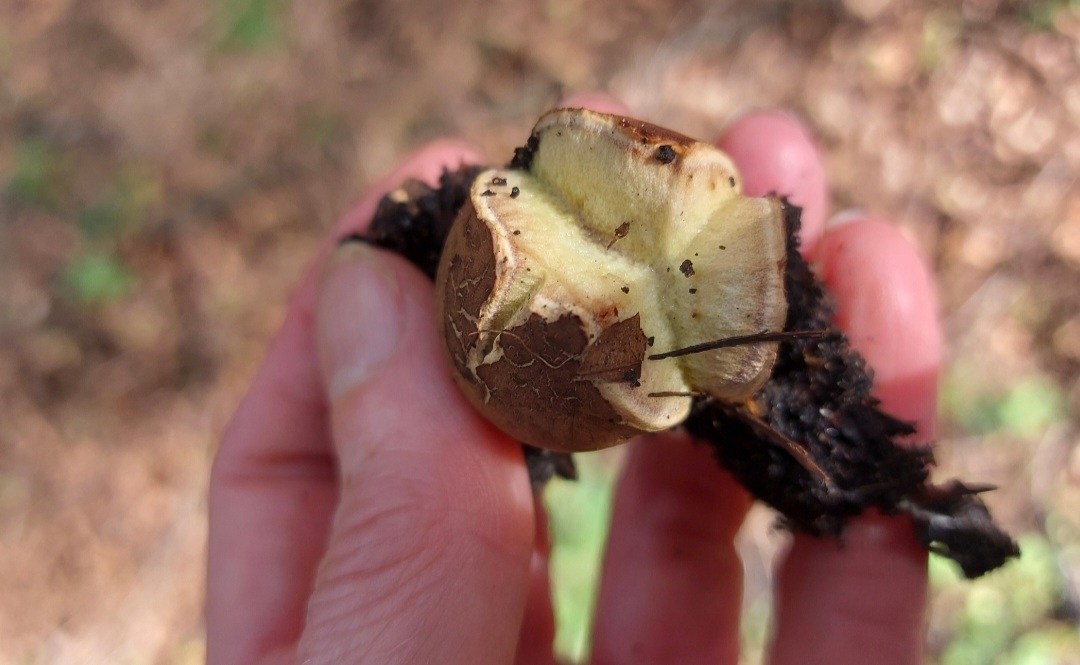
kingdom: Fungi
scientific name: Fungi
